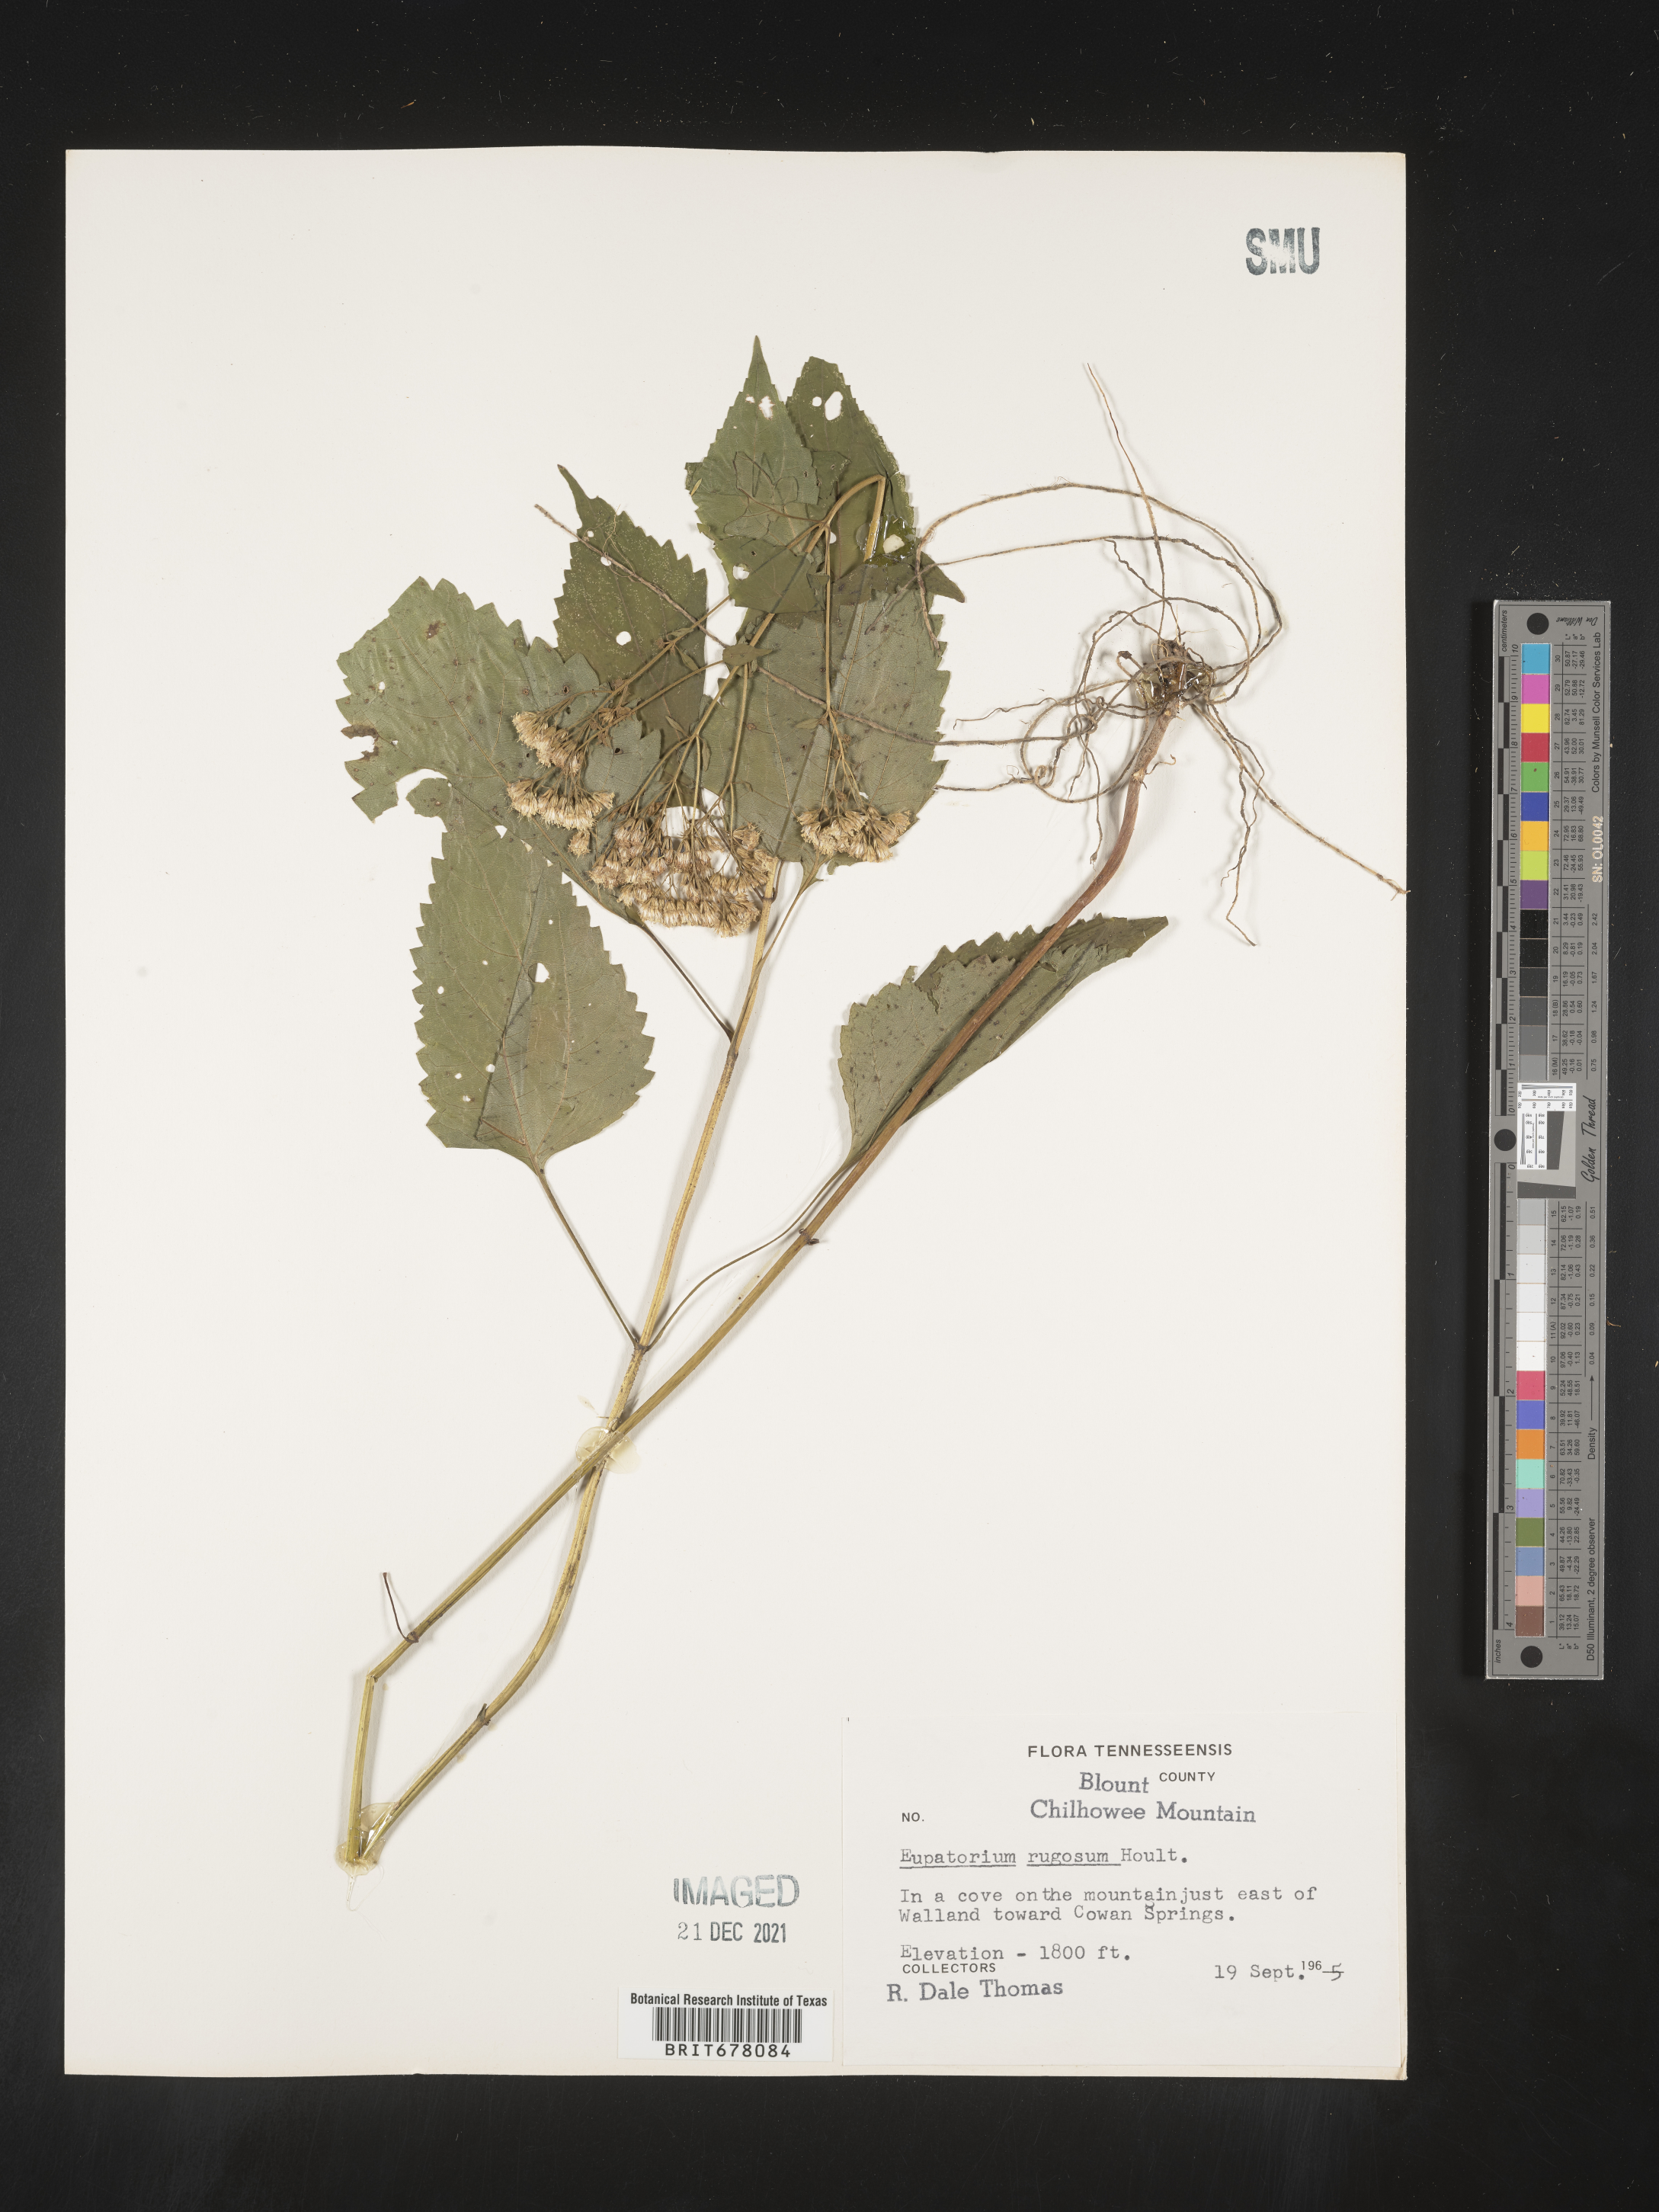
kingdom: Plantae
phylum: Tracheophyta
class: Magnoliopsida
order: Asterales
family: Asteraceae
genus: Eupatorium
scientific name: Eupatorium
